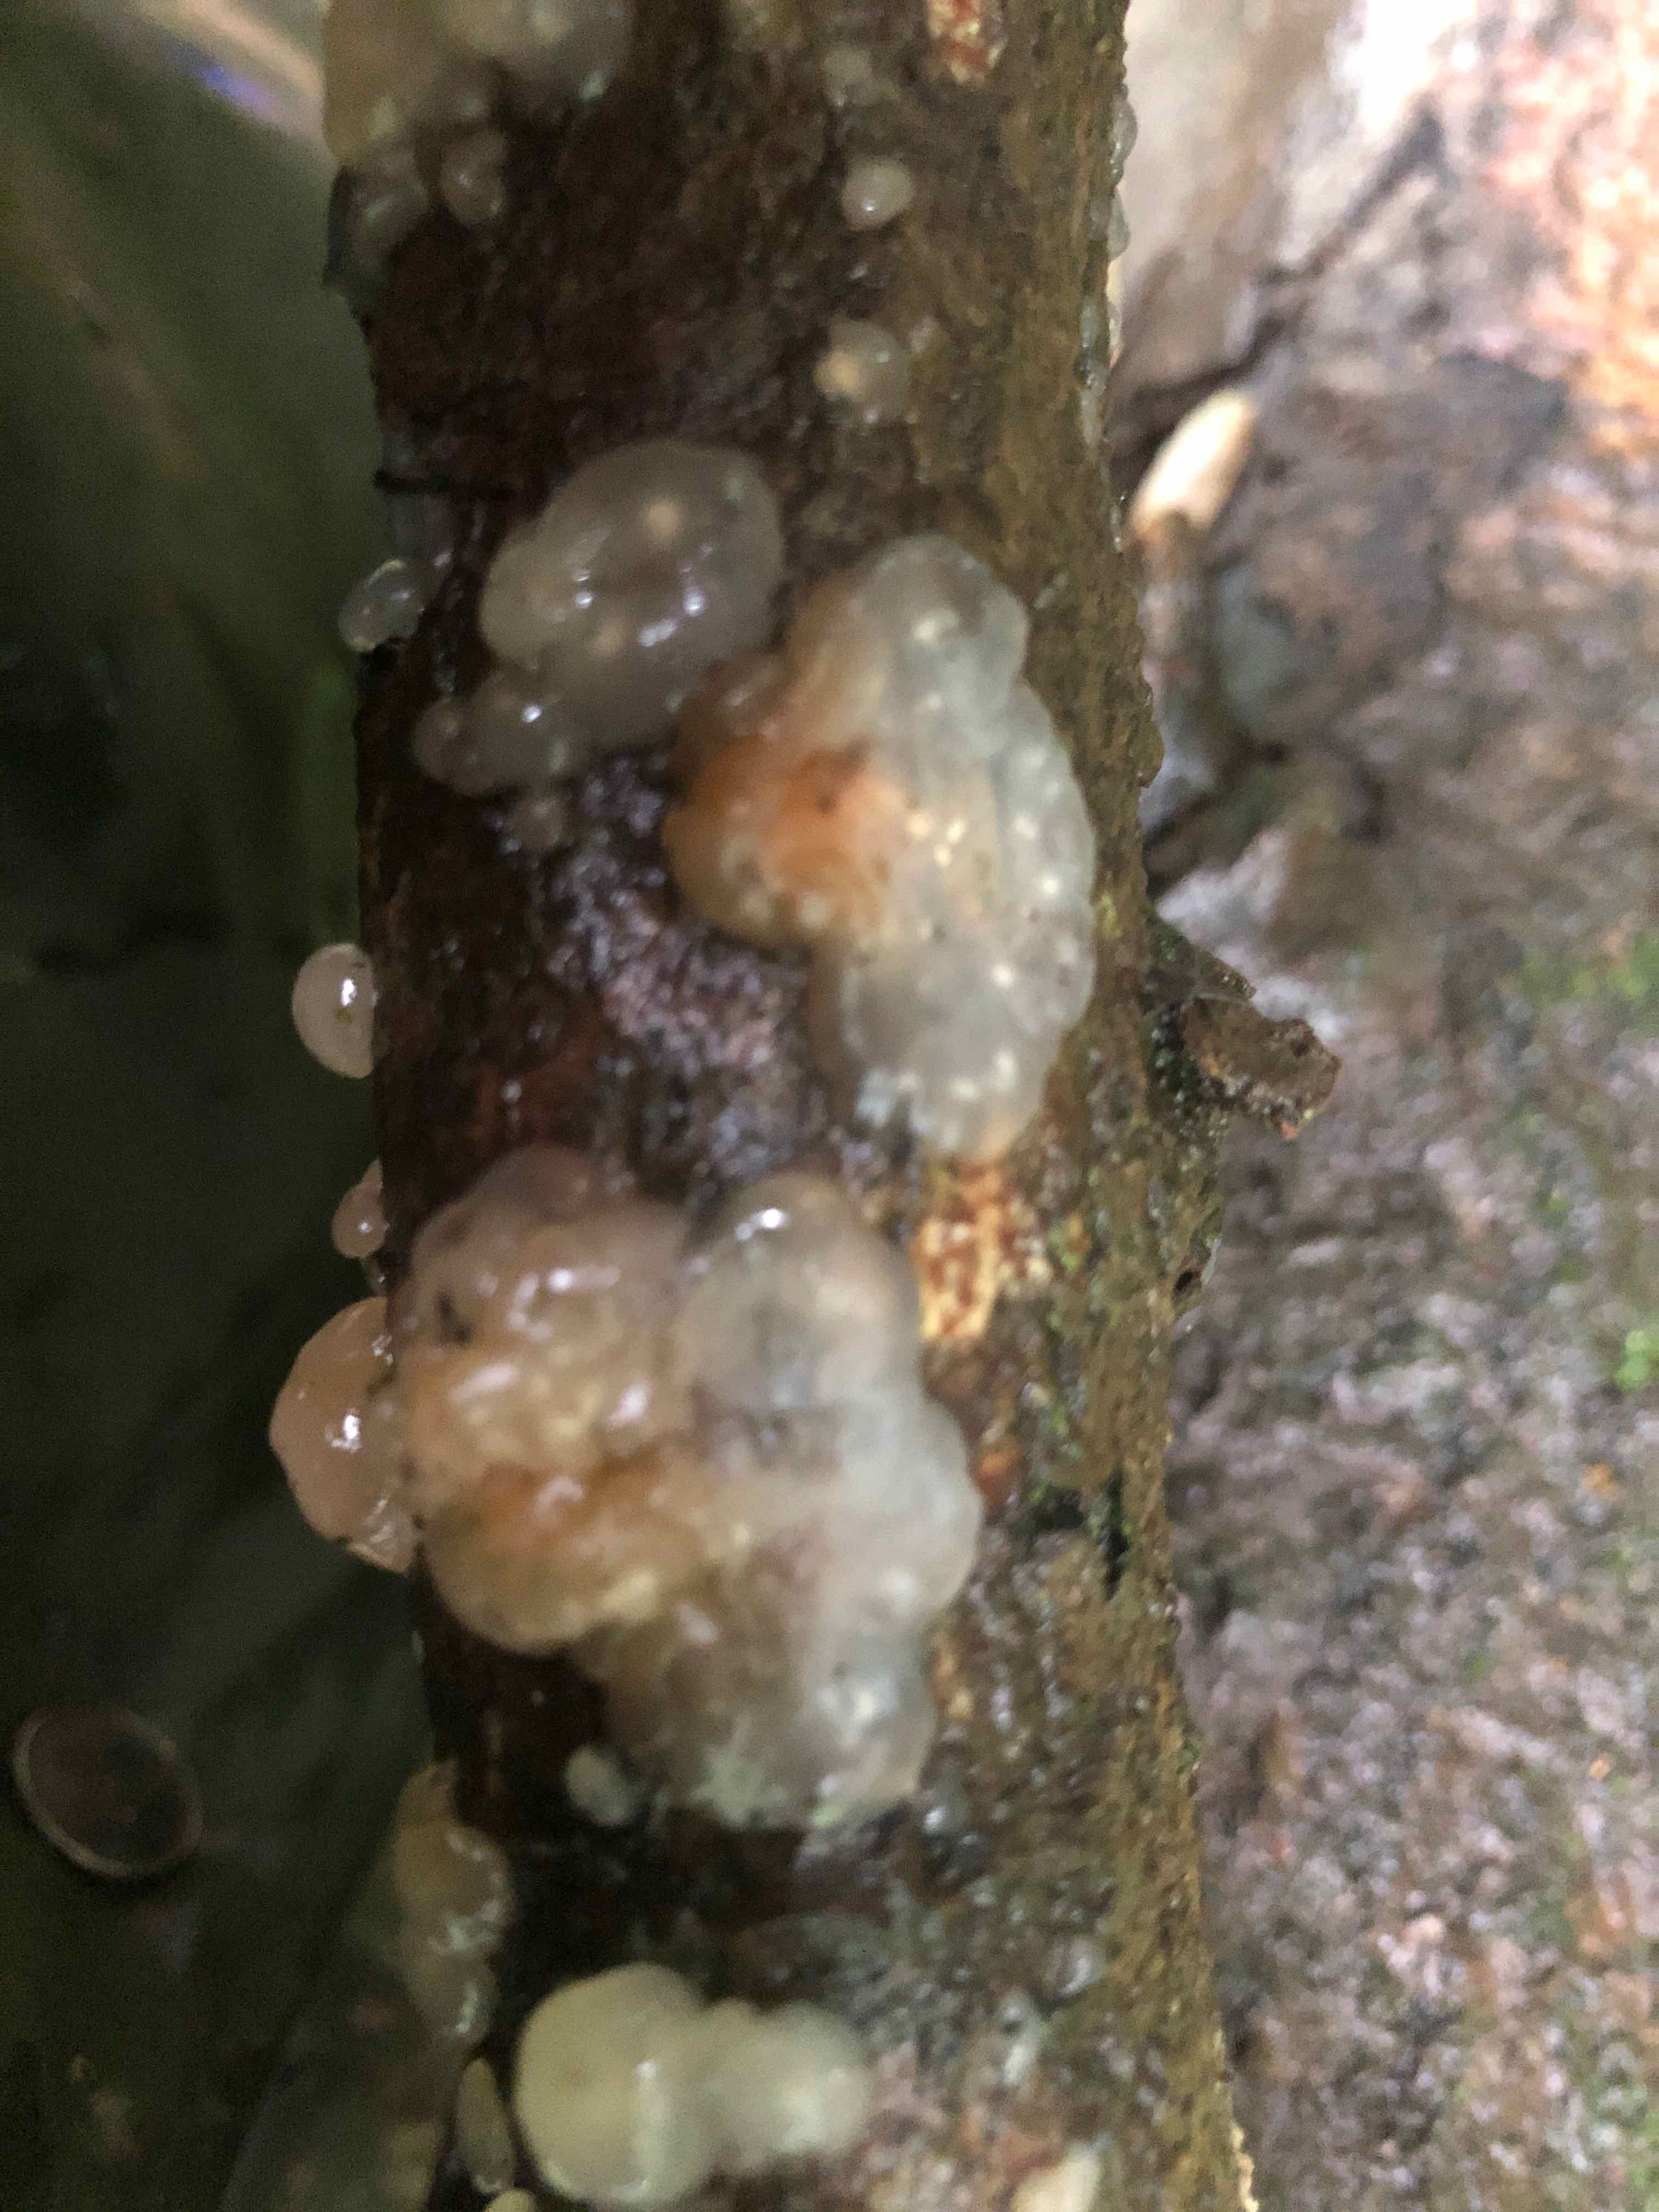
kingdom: Fungi
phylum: Basidiomycota
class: Agaricomycetes
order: Auriculariales
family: Hyaloriaceae
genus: Myxarium
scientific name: Myxarium
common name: bævretop
